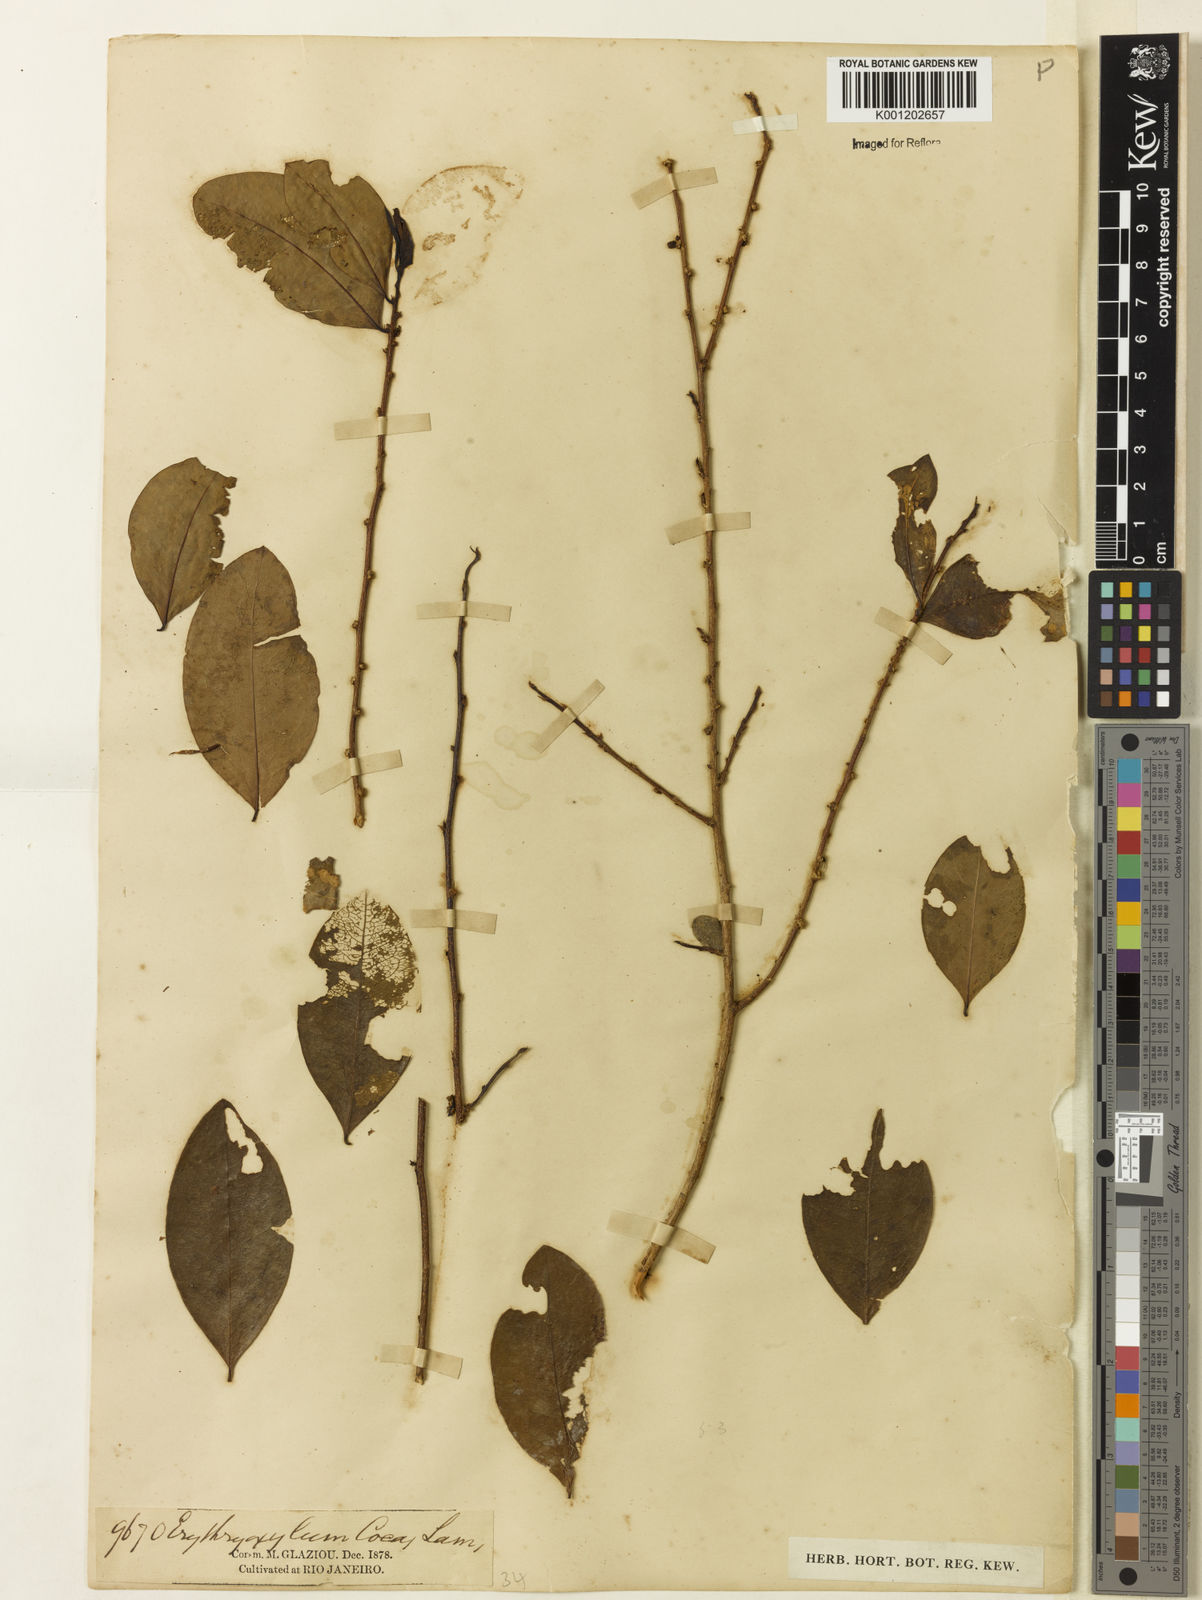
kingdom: Plantae
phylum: Tracheophyta
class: Magnoliopsida
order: Malpighiales
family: Erythroxylaceae
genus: Erythroxylum
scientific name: Erythroxylum coca
